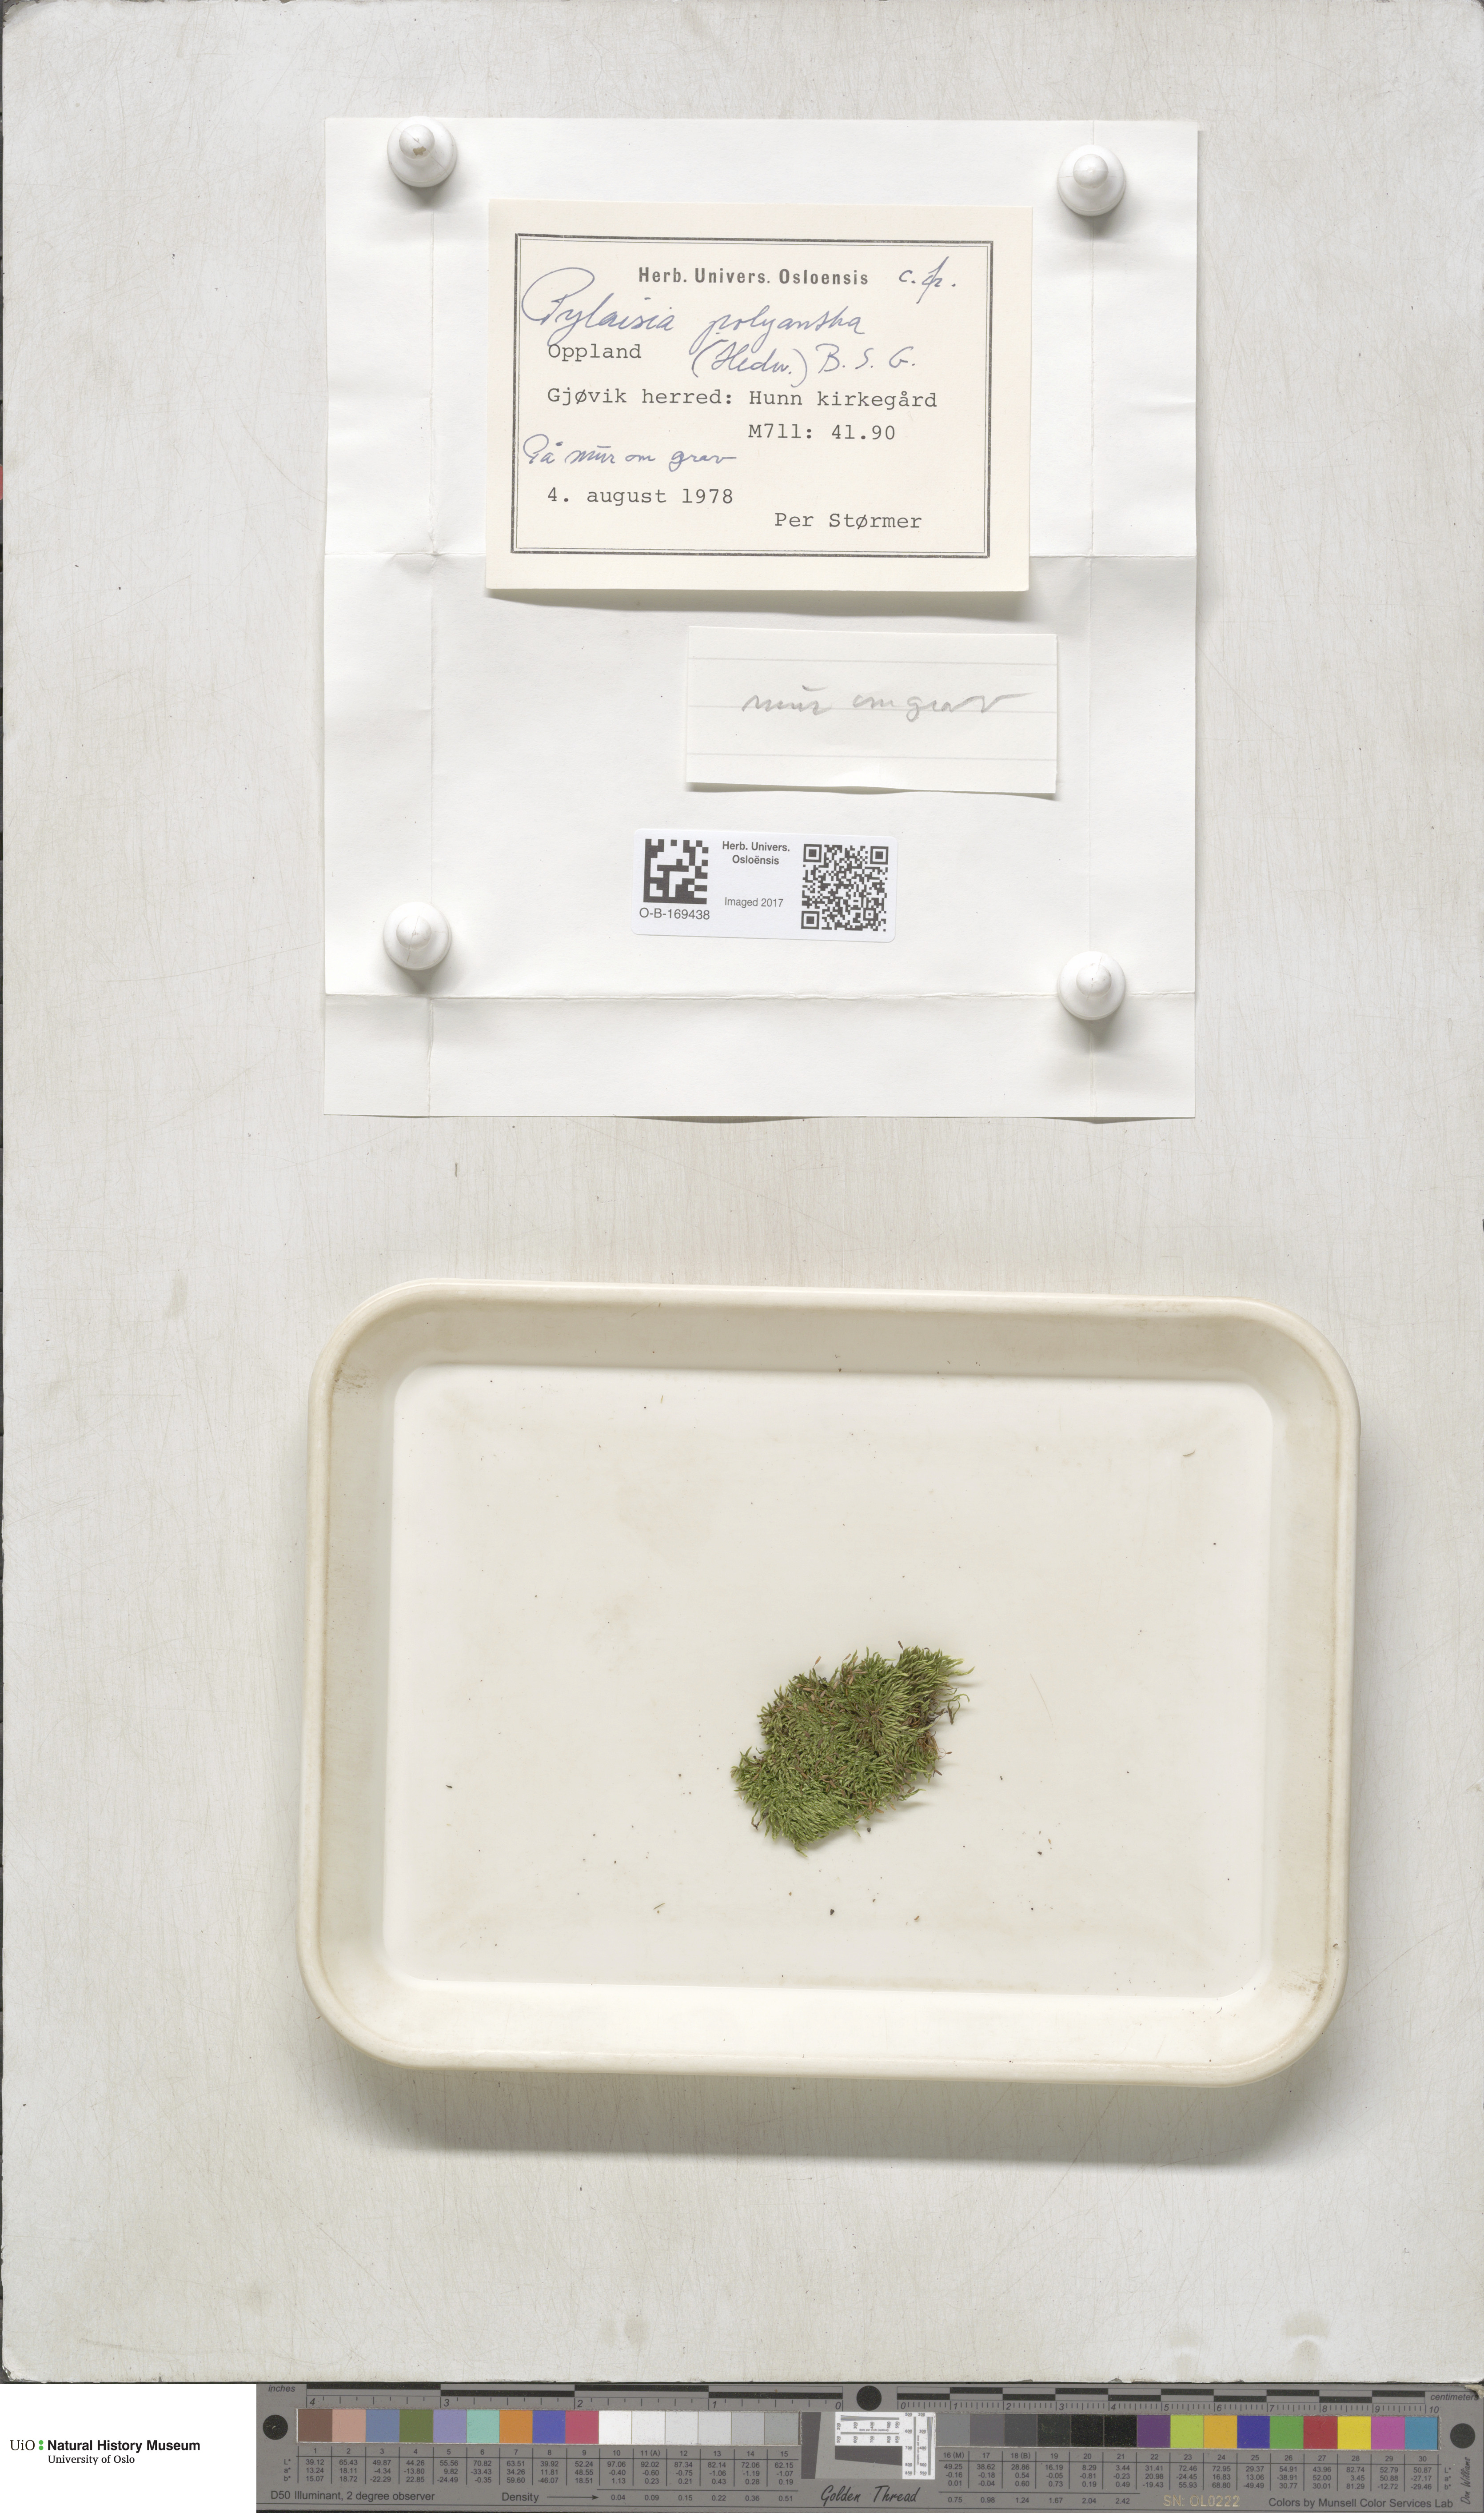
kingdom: Plantae
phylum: Bryophyta
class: Bryopsida
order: Hypnales
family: Pylaisiaceae
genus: Pylaisia
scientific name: Pylaisia polyantha
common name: Many-flowered leskea
